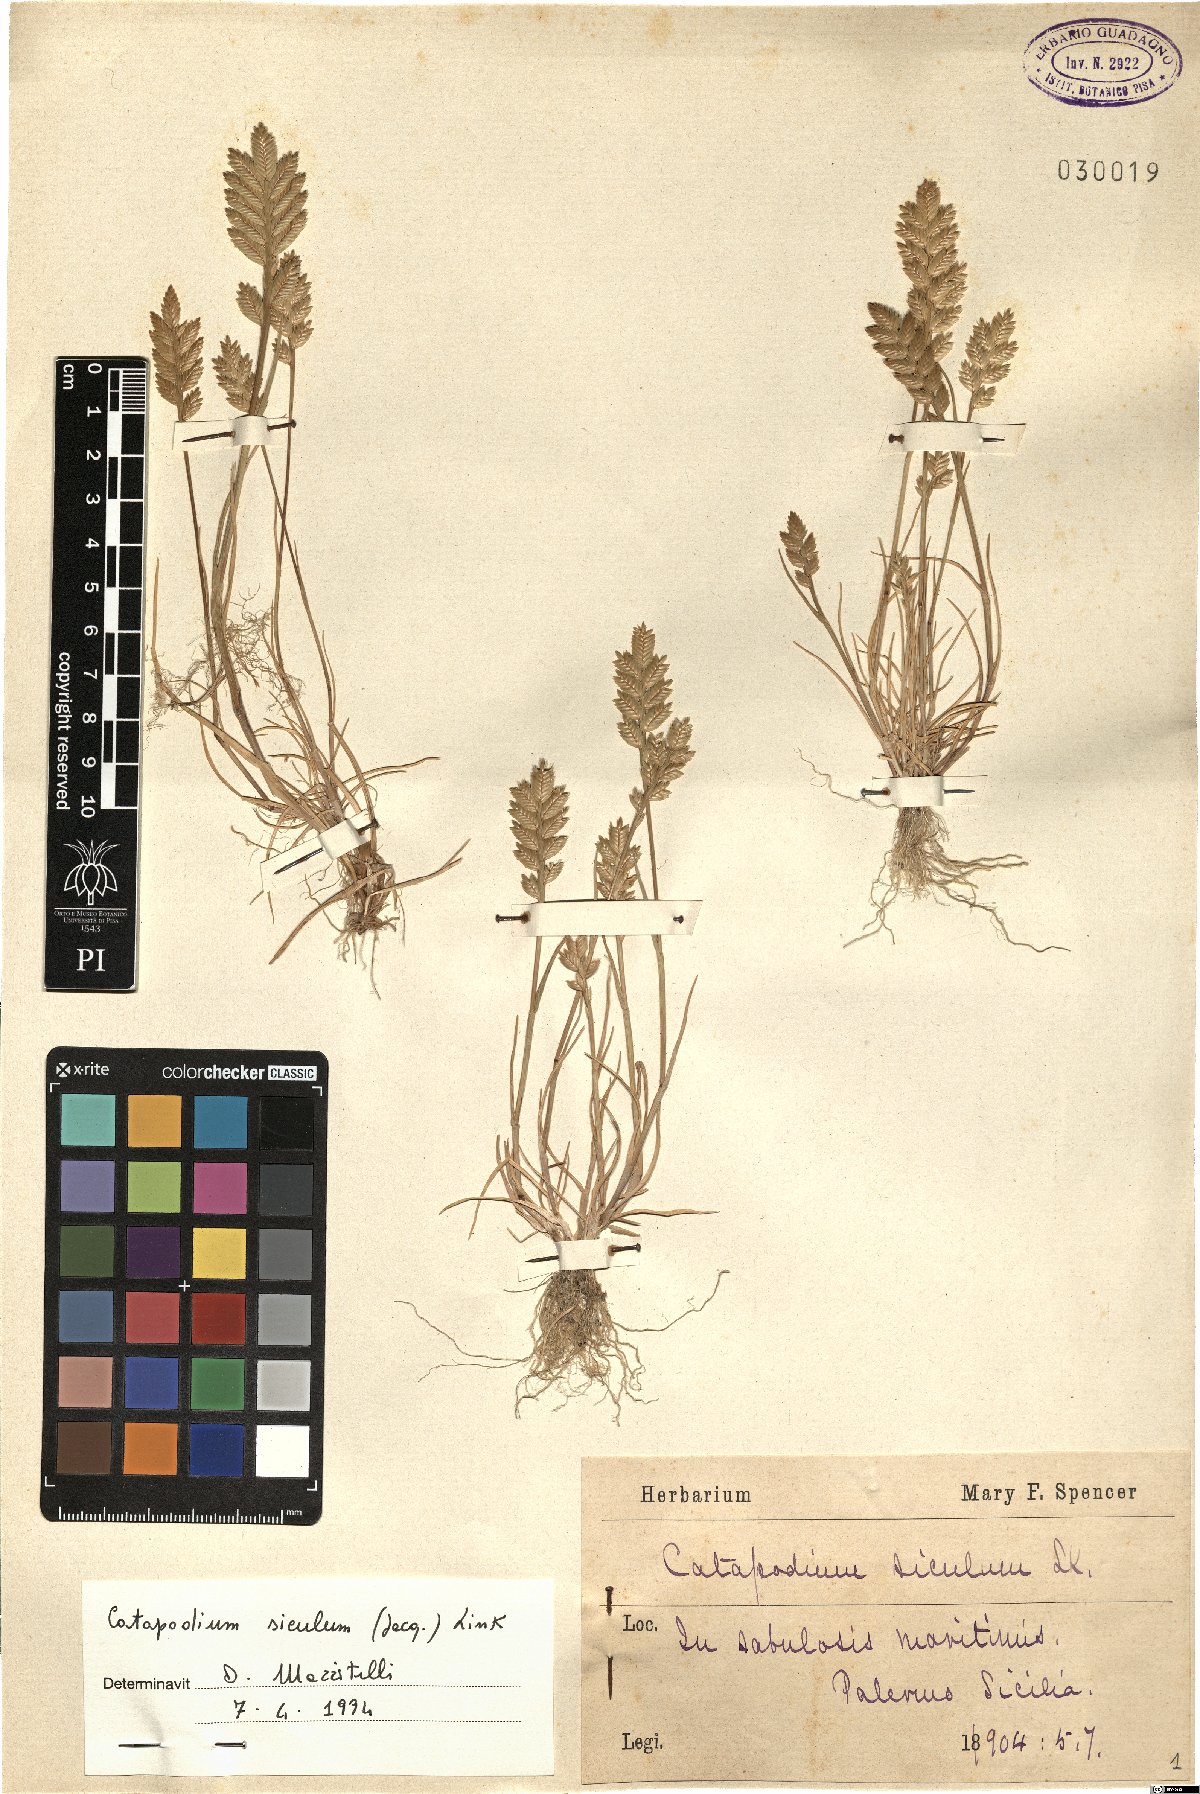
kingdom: Plantae
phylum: Tracheophyta
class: Liliopsida
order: Poales
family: Poaceae
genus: Desmazeria
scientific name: Desmazeria sicula
